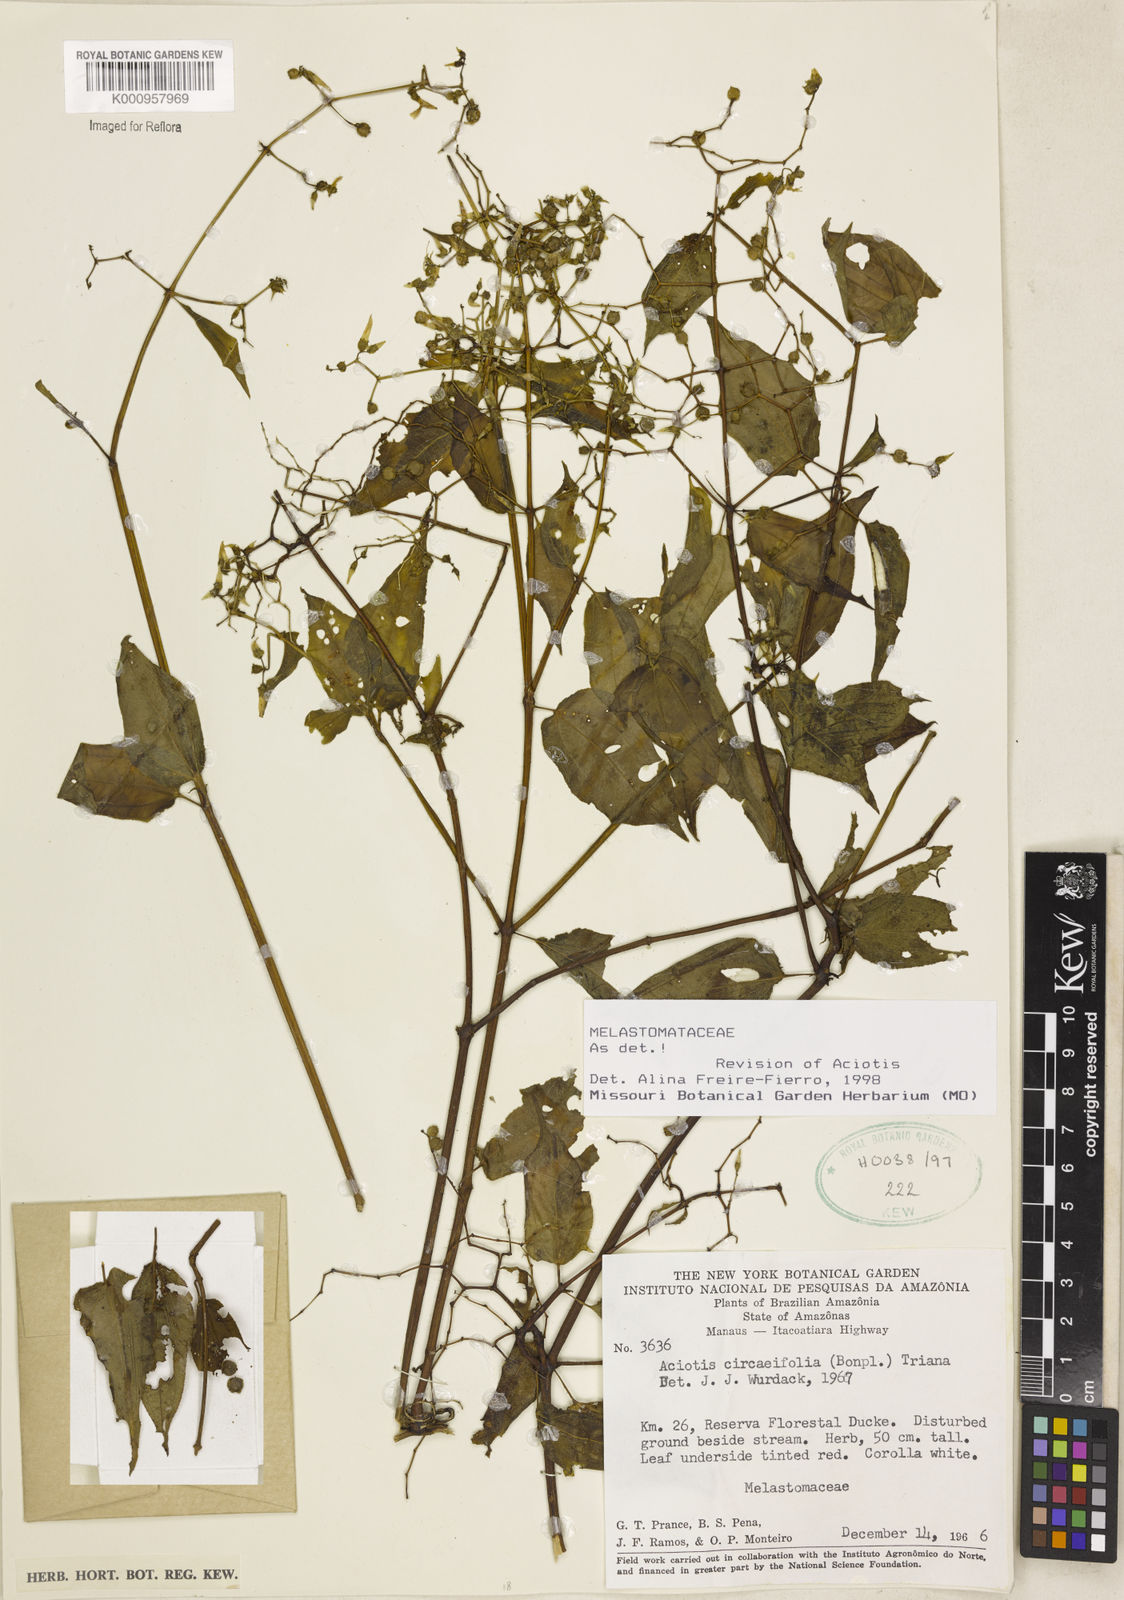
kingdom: Plantae
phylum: Tracheophyta
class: Magnoliopsida
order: Myrtales
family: Melastomataceae
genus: Aciotis
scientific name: Aciotis circaeifolia
